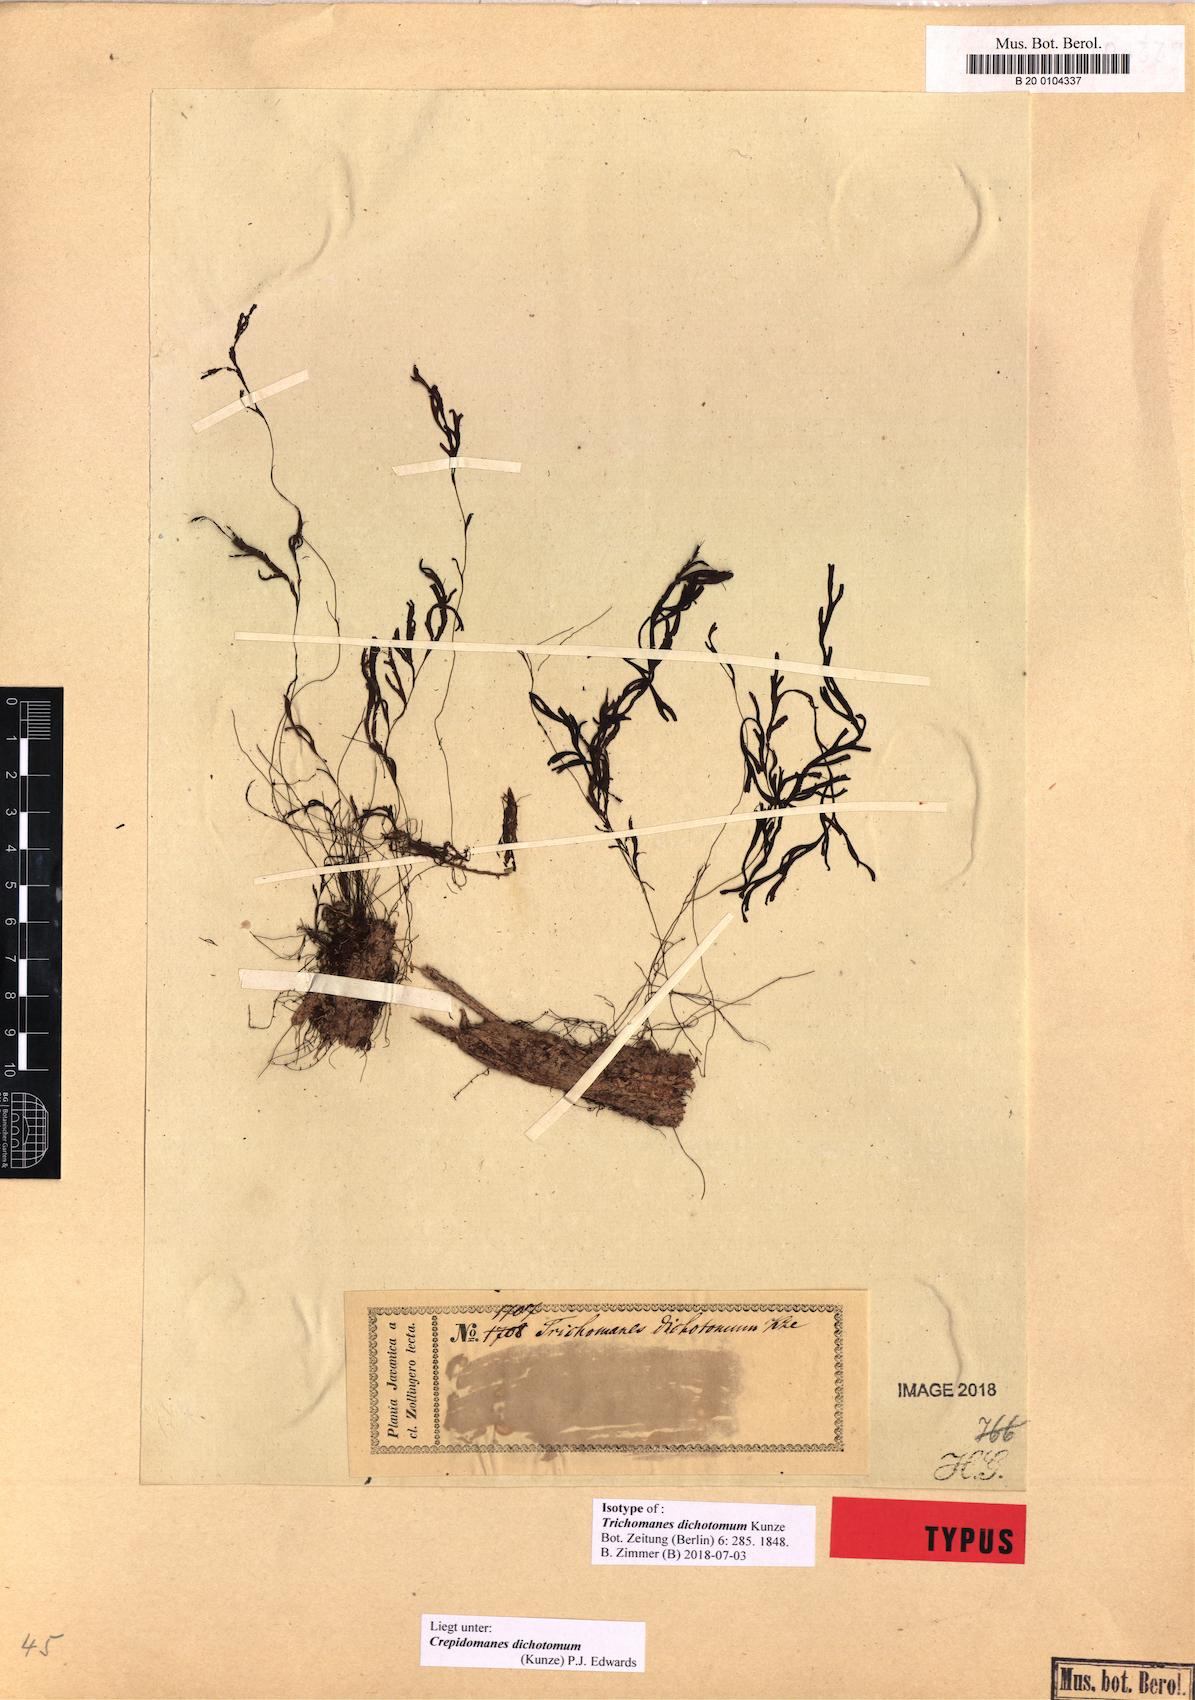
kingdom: Plantae
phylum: Tracheophyta
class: Polypodiopsida
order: Hymenophyllales
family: Hymenophyllaceae
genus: Hymenophyllum
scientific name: Hymenophyllum digitatum
